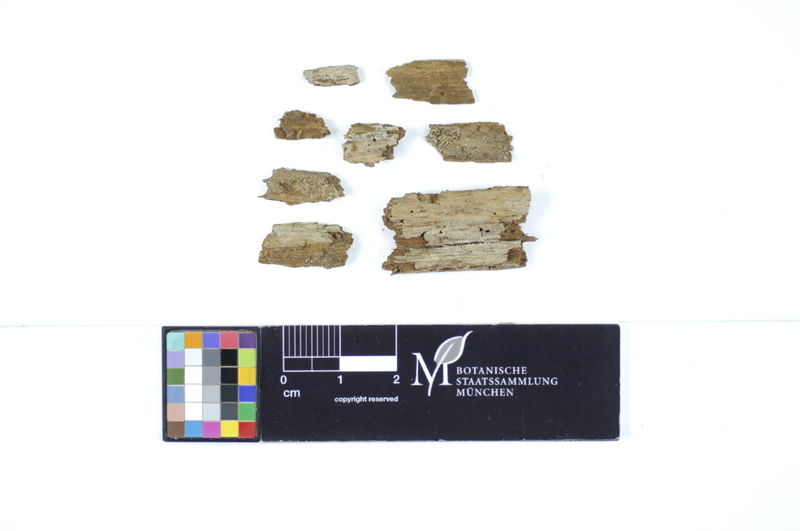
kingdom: Fungi
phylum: Basidiomycota
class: Agaricomycetes
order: Hymenochaetales
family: Repetobasidiaceae
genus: Lawrynomyces
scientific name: Lawrynomyces capitatus
